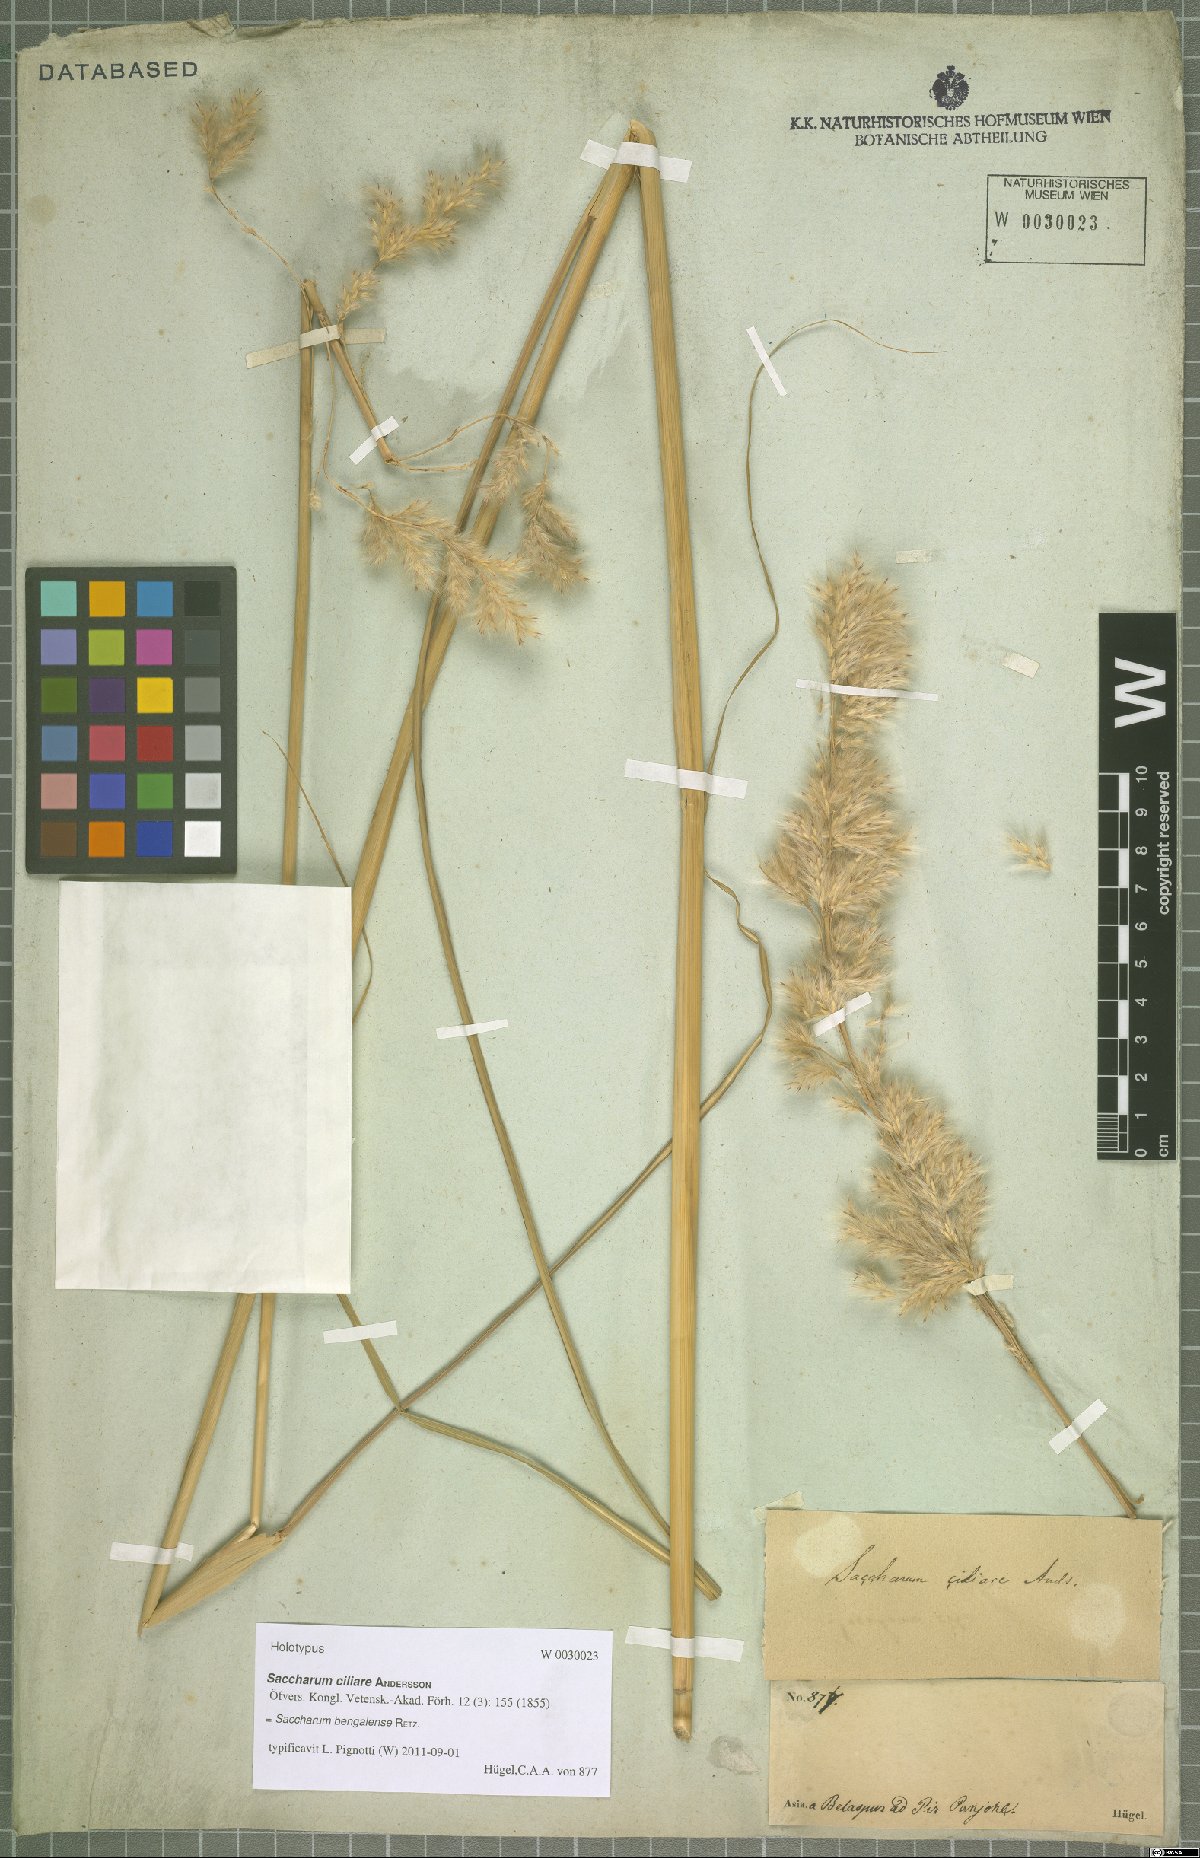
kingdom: Plantae
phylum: Tracheophyta
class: Liliopsida
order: Poales
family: Poaceae
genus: Tripidium
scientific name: Tripidium bengalense
